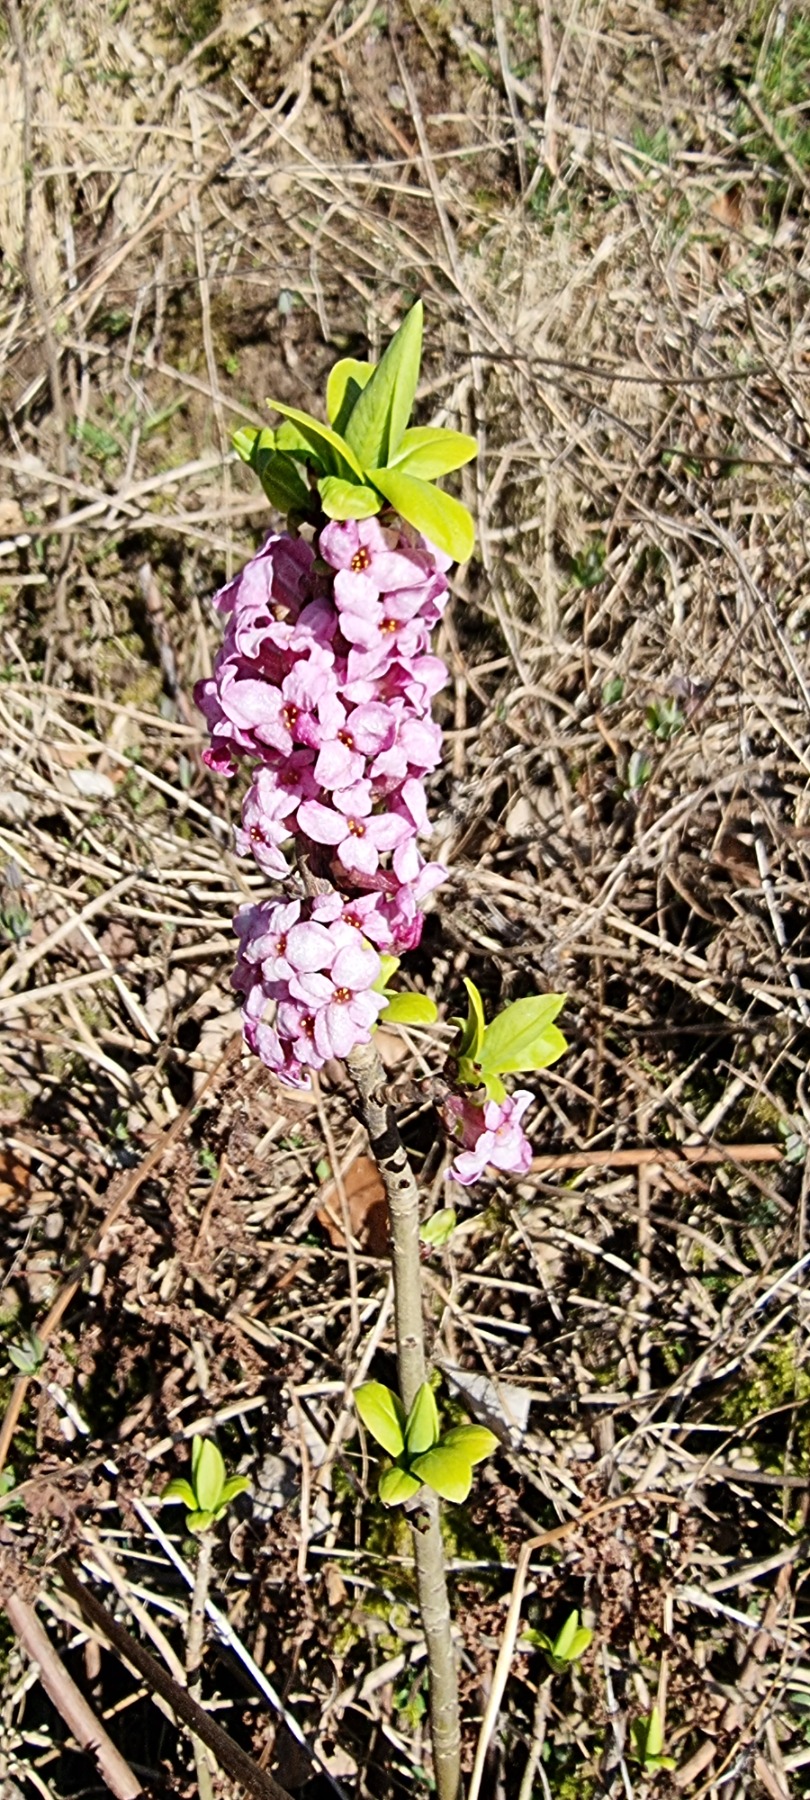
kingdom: Plantae
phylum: Tracheophyta
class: Magnoliopsida
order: Malvales
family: Thymelaeaceae
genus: Daphne
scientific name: Daphne mezereum
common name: Pebertræ
